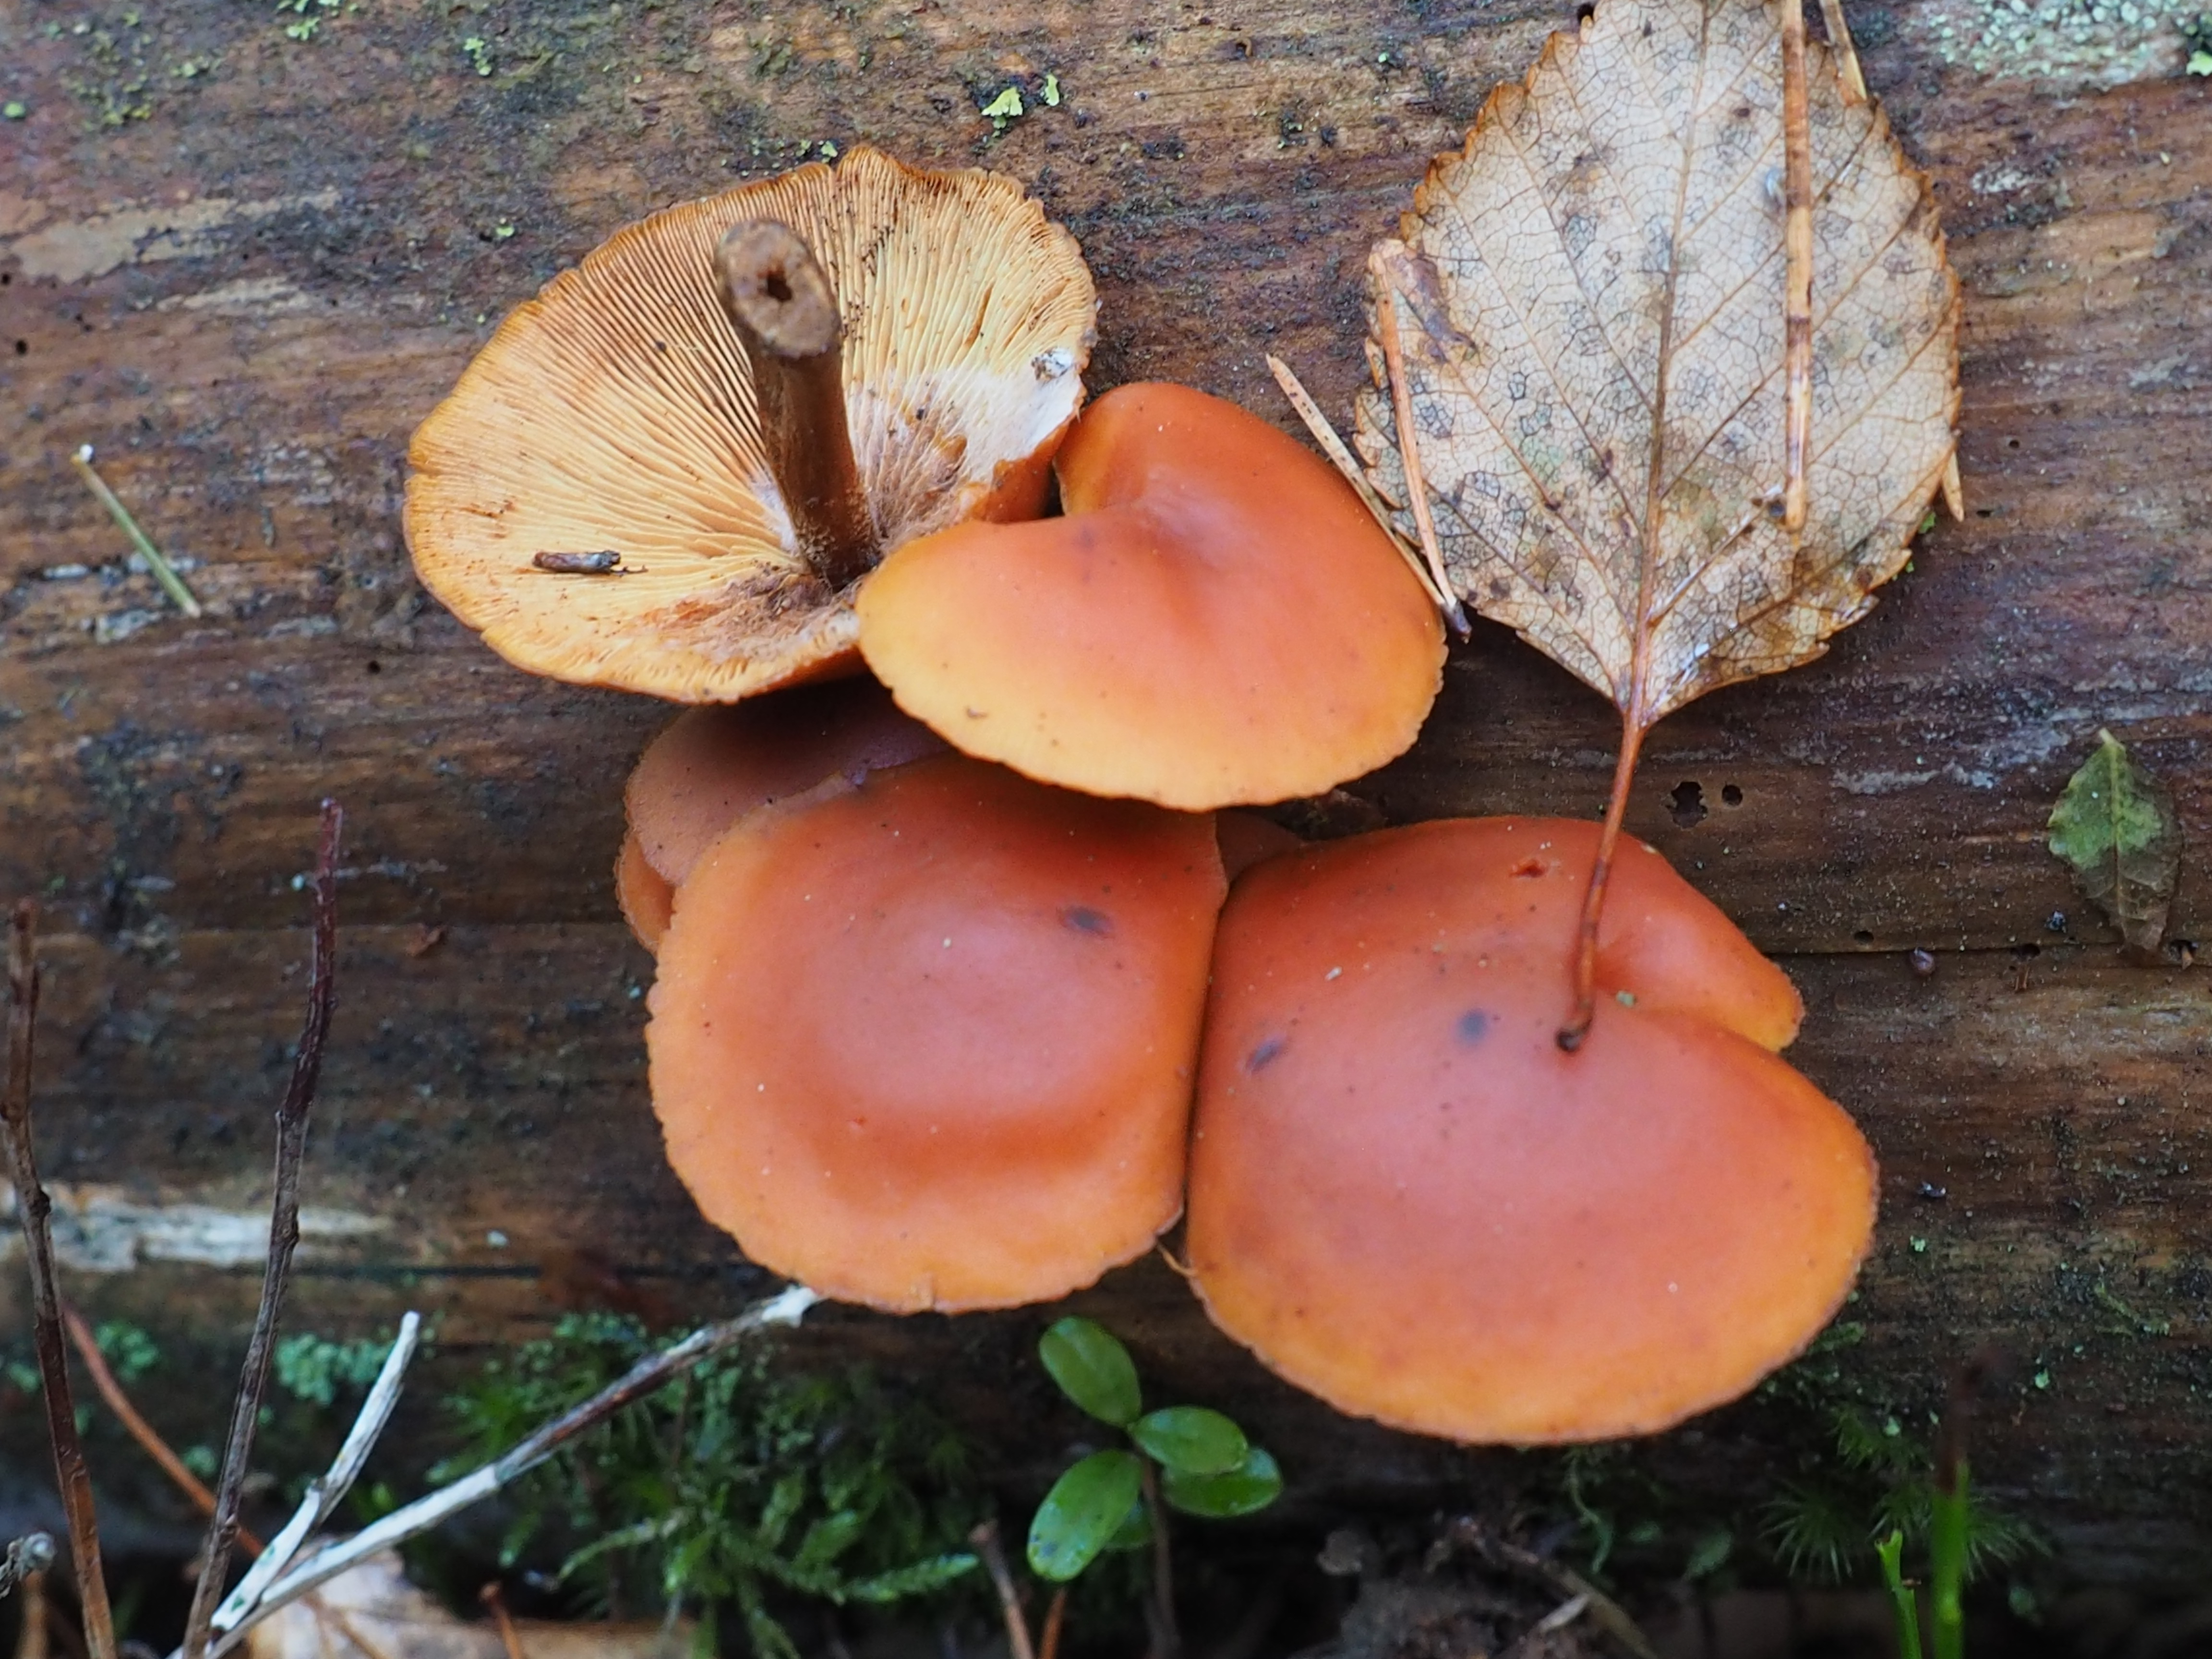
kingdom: Fungi
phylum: Basidiomycota
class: Agaricomycetes
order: Agaricales
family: Hymenogastraceae
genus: Gymnopilus
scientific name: Gymnopilus picreus
